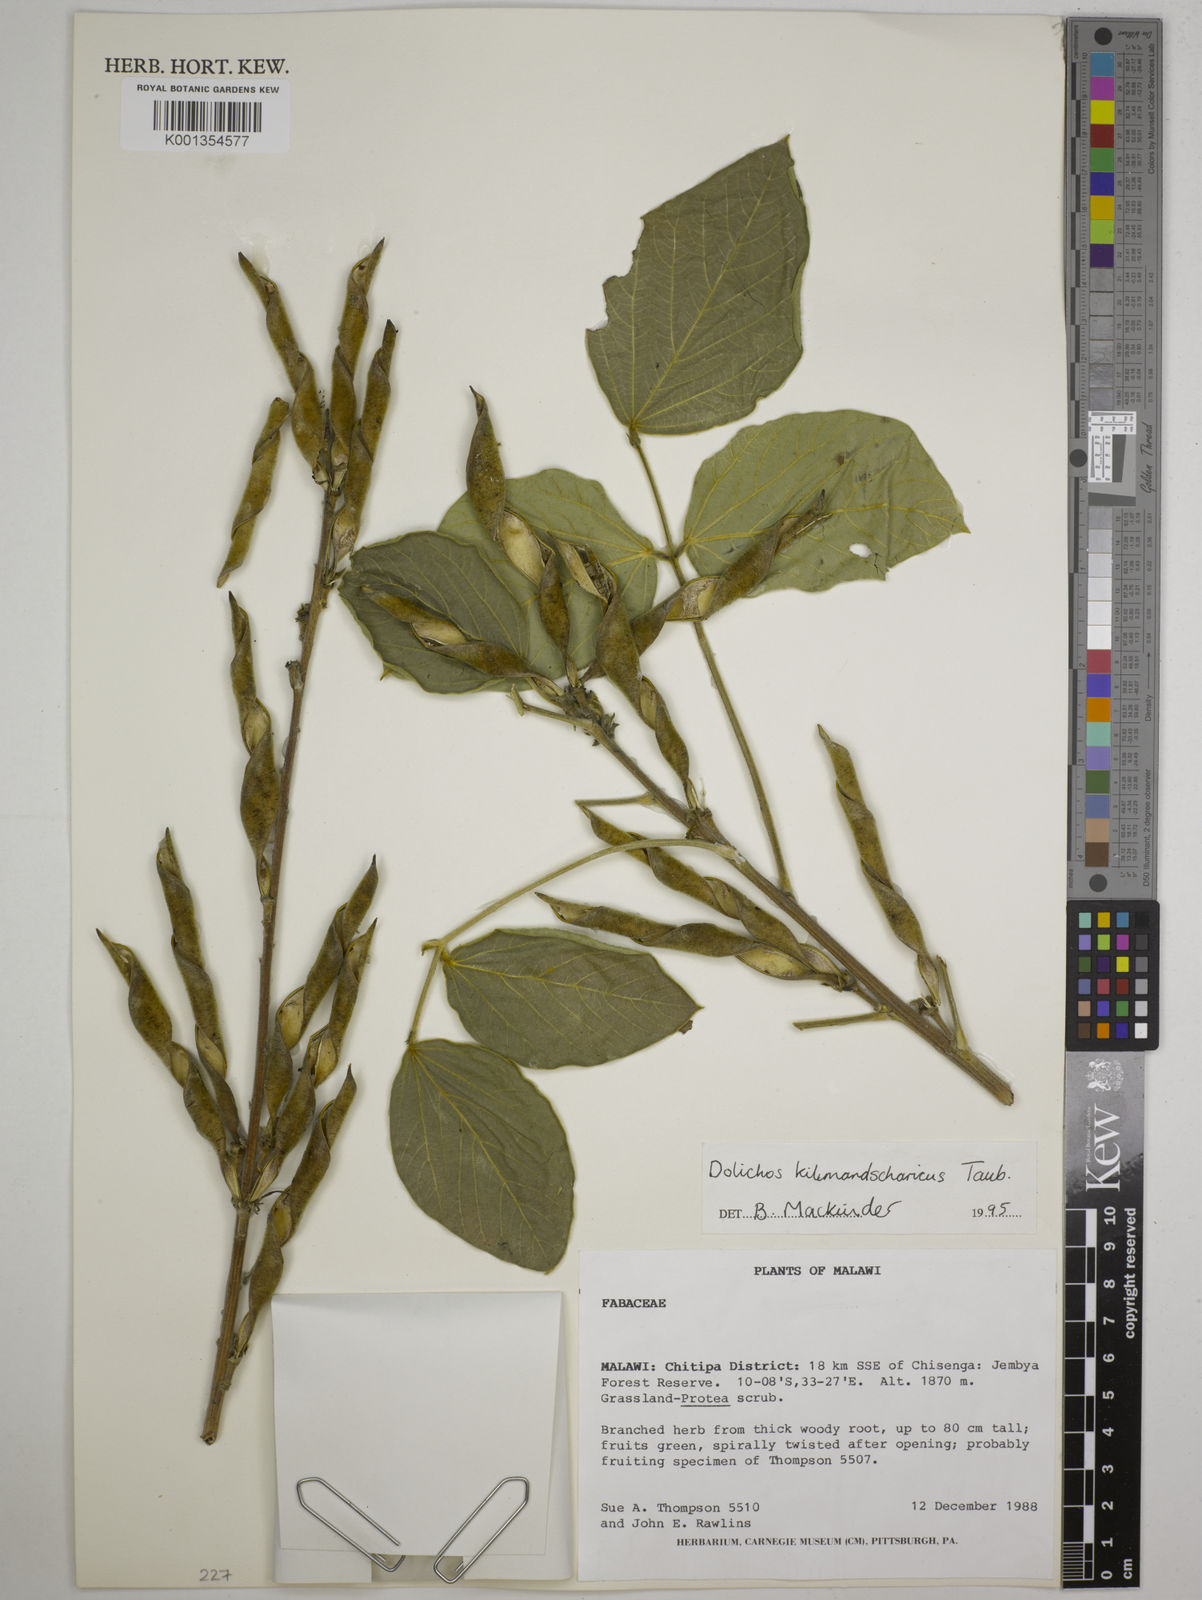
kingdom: Plantae
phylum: Tracheophyta
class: Magnoliopsida
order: Fabales
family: Fabaceae
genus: Dolichos
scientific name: Dolichos kilimandscharicus
